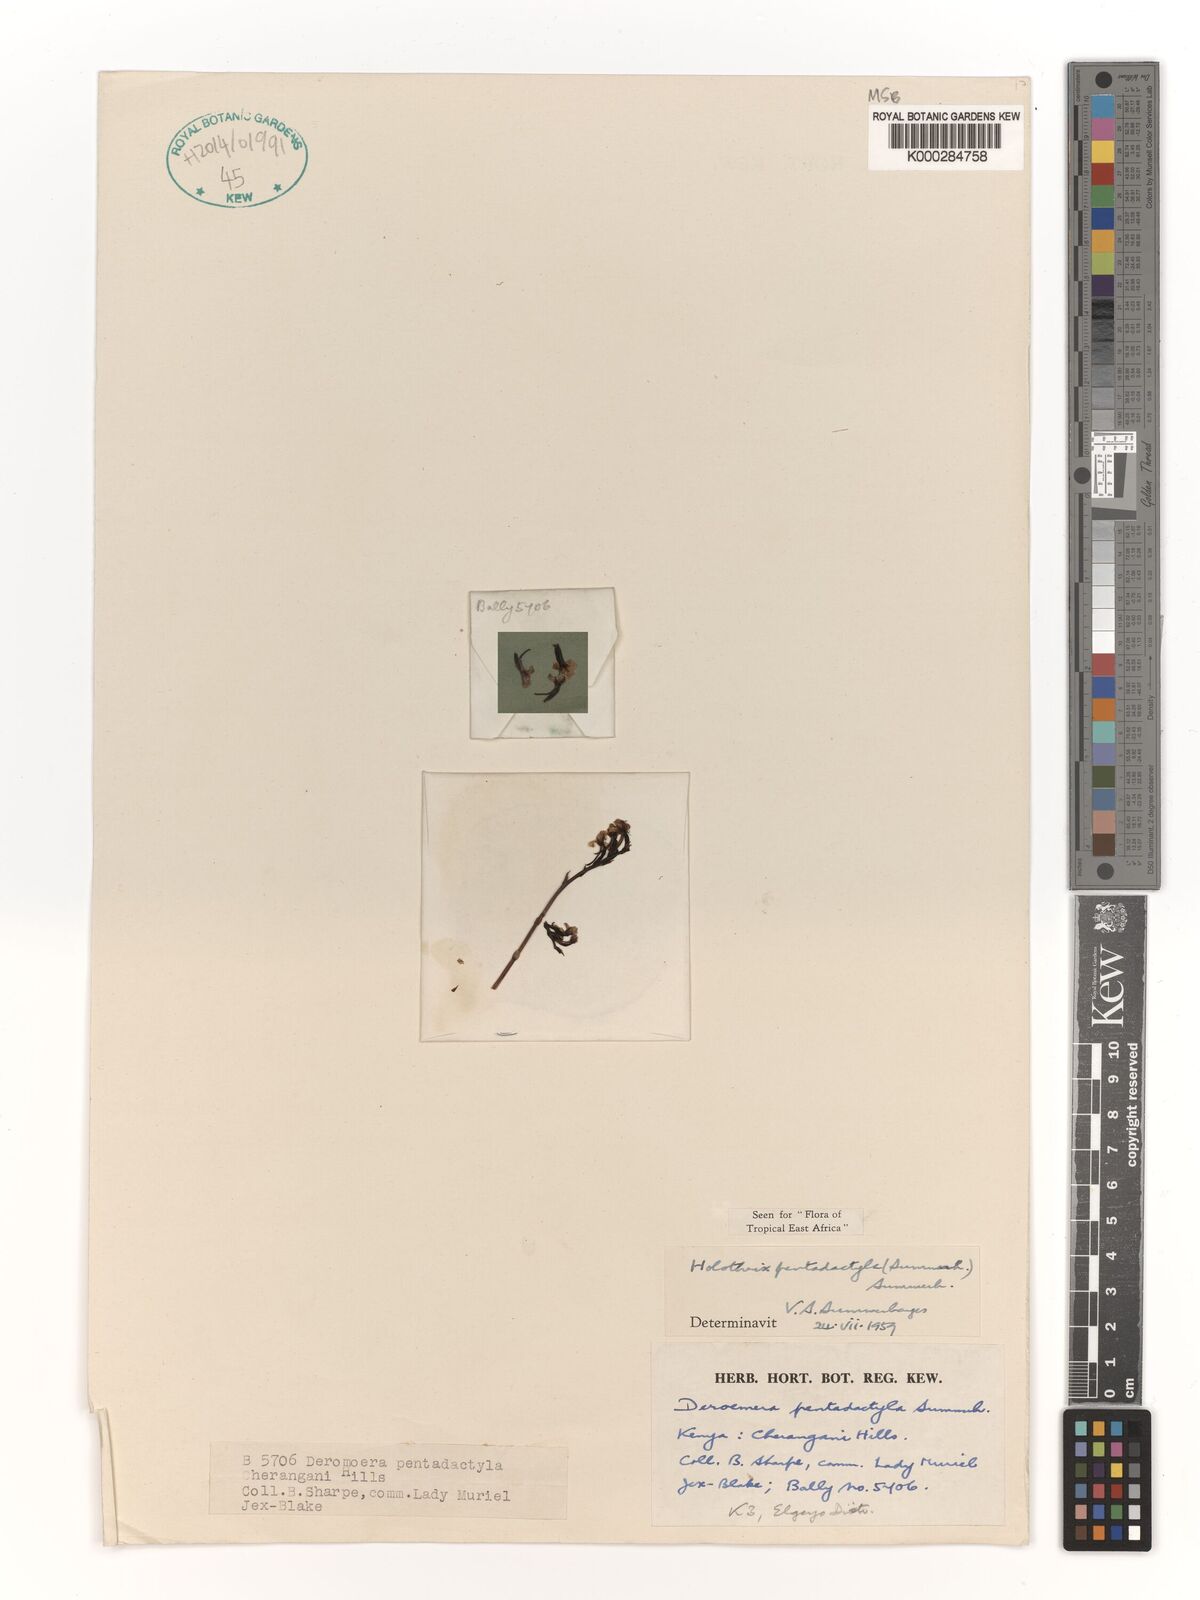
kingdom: Plantae
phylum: Tracheophyta
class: Liliopsida
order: Asparagales
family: Orchidaceae
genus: Holothrix
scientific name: Holothrix pentadactyla
